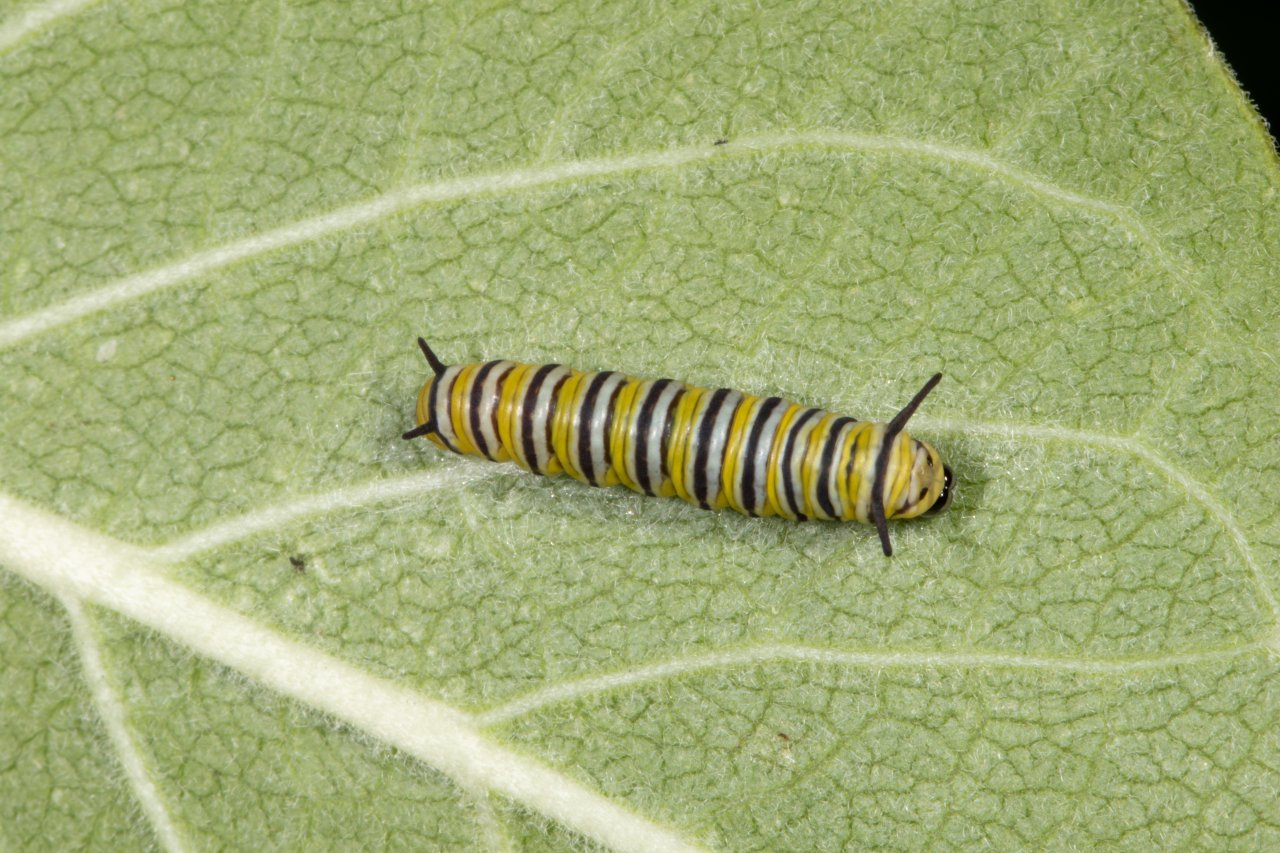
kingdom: Animalia
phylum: Arthropoda
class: Insecta
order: Lepidoptera
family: Nymphalidae
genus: Danaus
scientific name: Danaus plexippus
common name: Monarch
